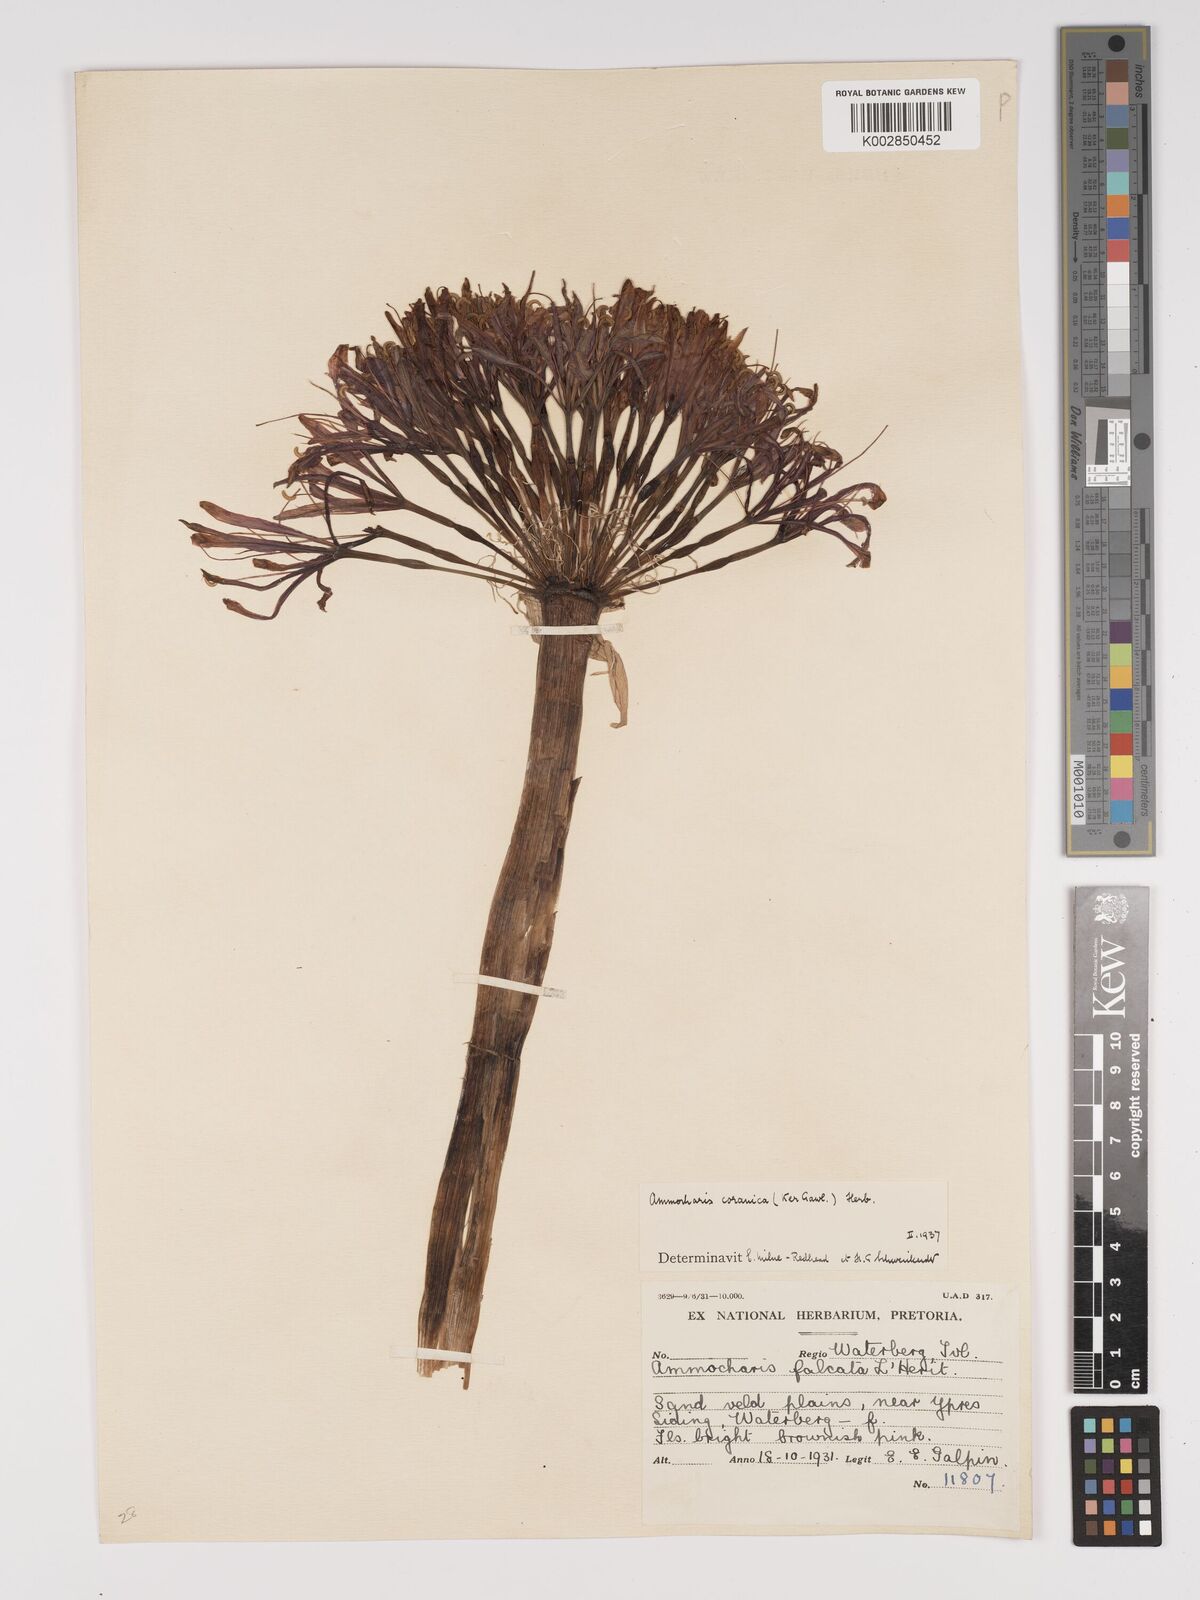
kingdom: Plantae
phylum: Tracheophyta
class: Liliopsida
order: Asparagales
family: Amaryllidaceae
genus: Ammocharis
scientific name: Ammocharis coranica
